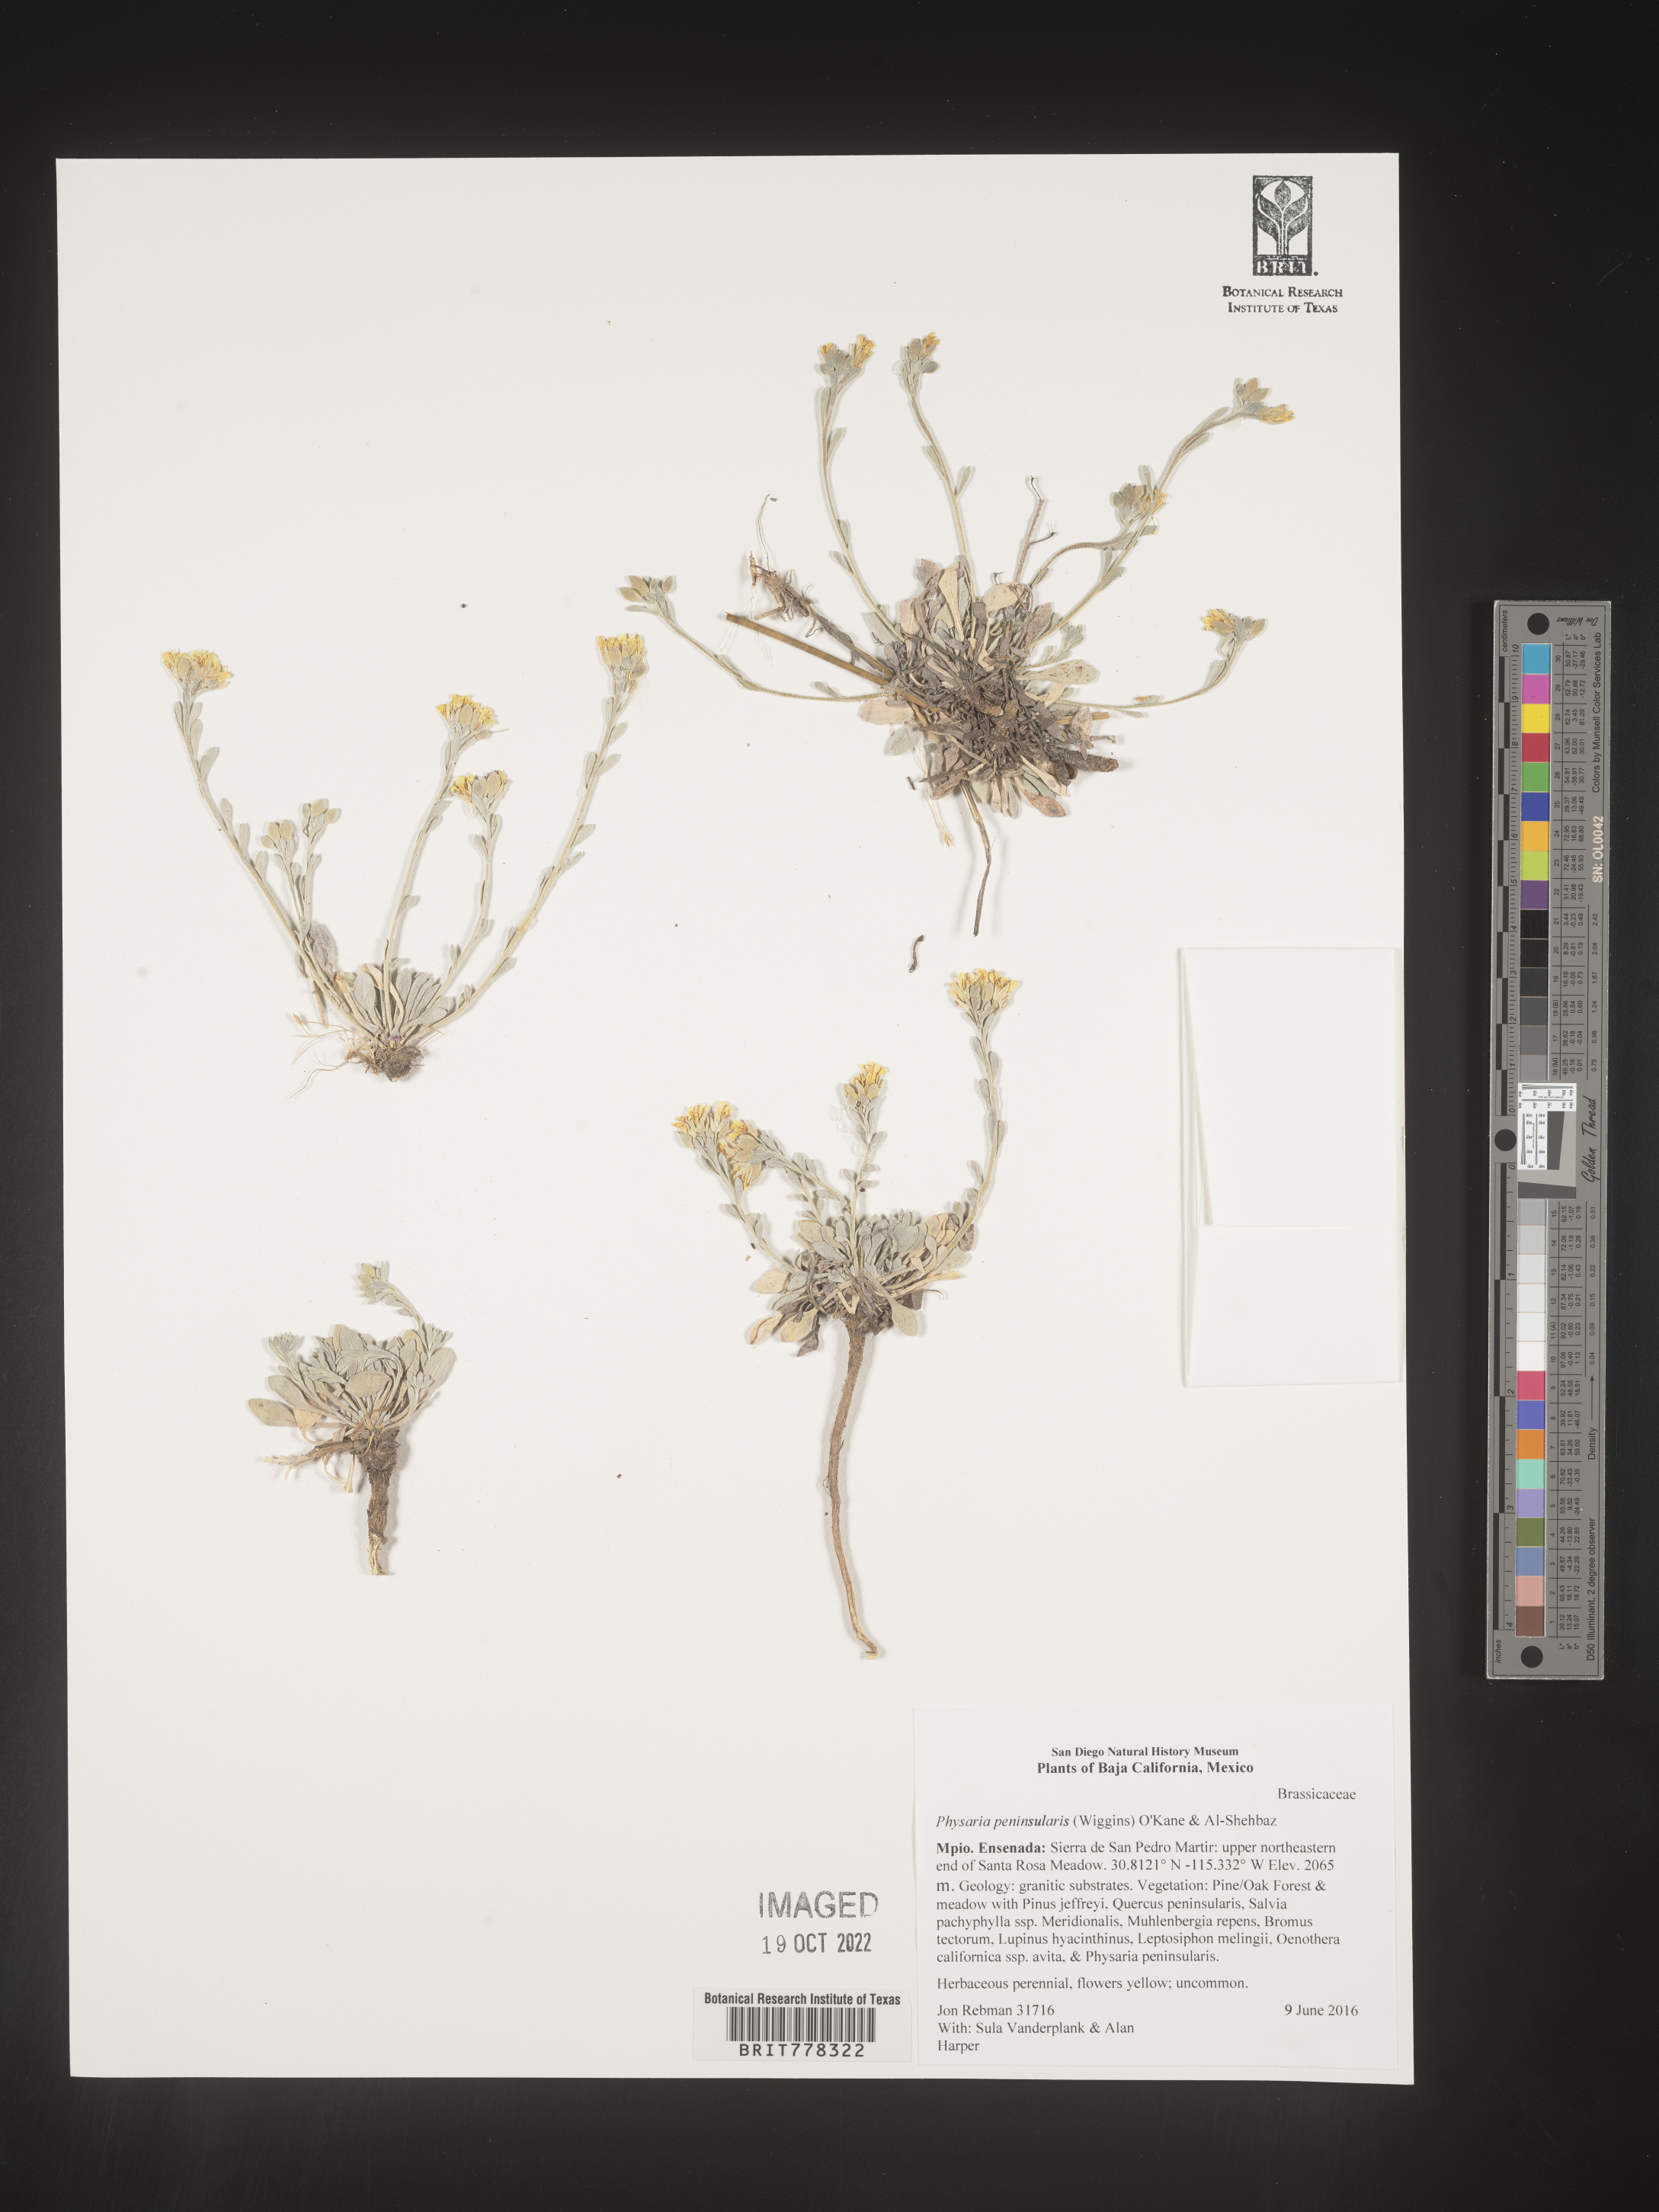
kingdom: Plantae
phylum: Tracheophyta
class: Magnoliopsida
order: Brassicales
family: Brassicaceae
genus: Physaria
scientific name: Physaria peninsularis
